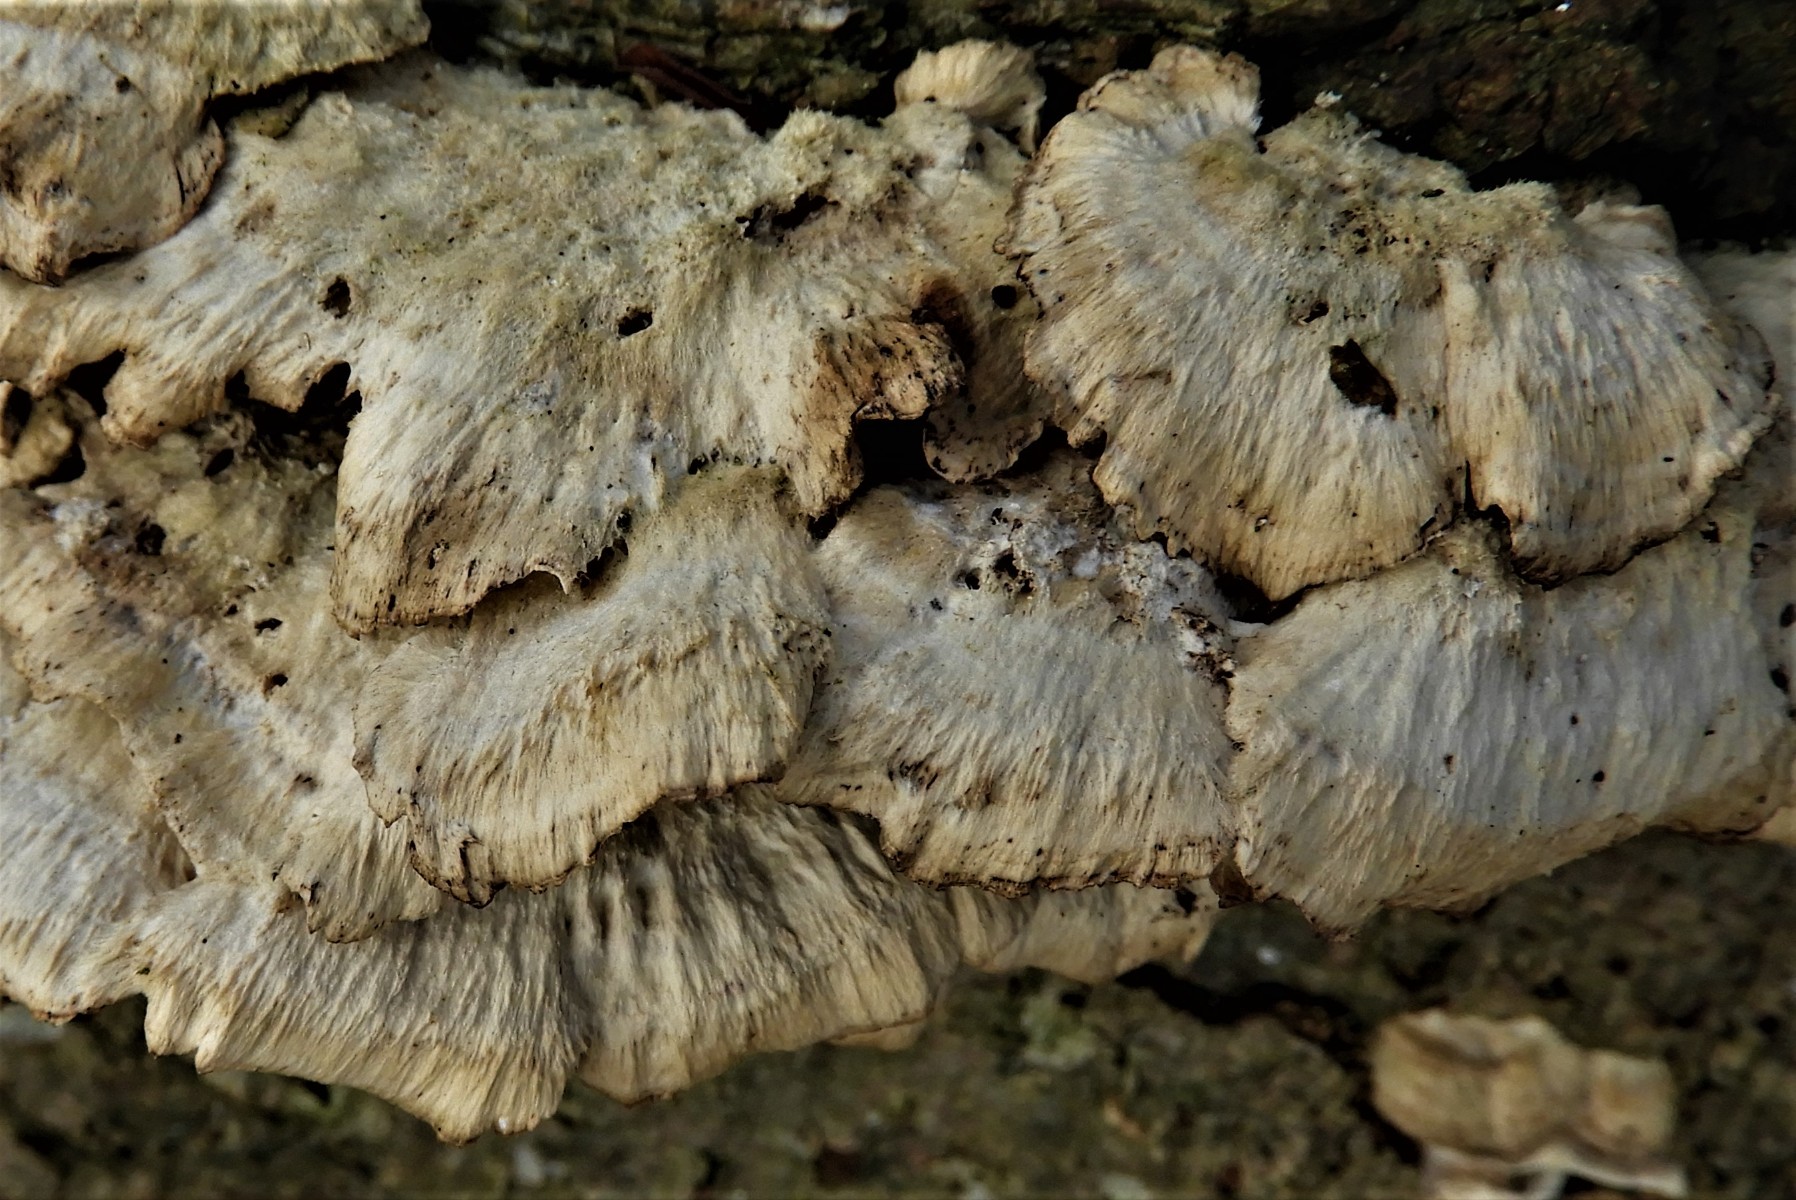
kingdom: Fungi
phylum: Basidiomycota
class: Agaricomycetes
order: Polyporales
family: Phanerochaetaceae
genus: Bjerkandera
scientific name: Bjerkandera adusta
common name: sveden sodporesvamp
